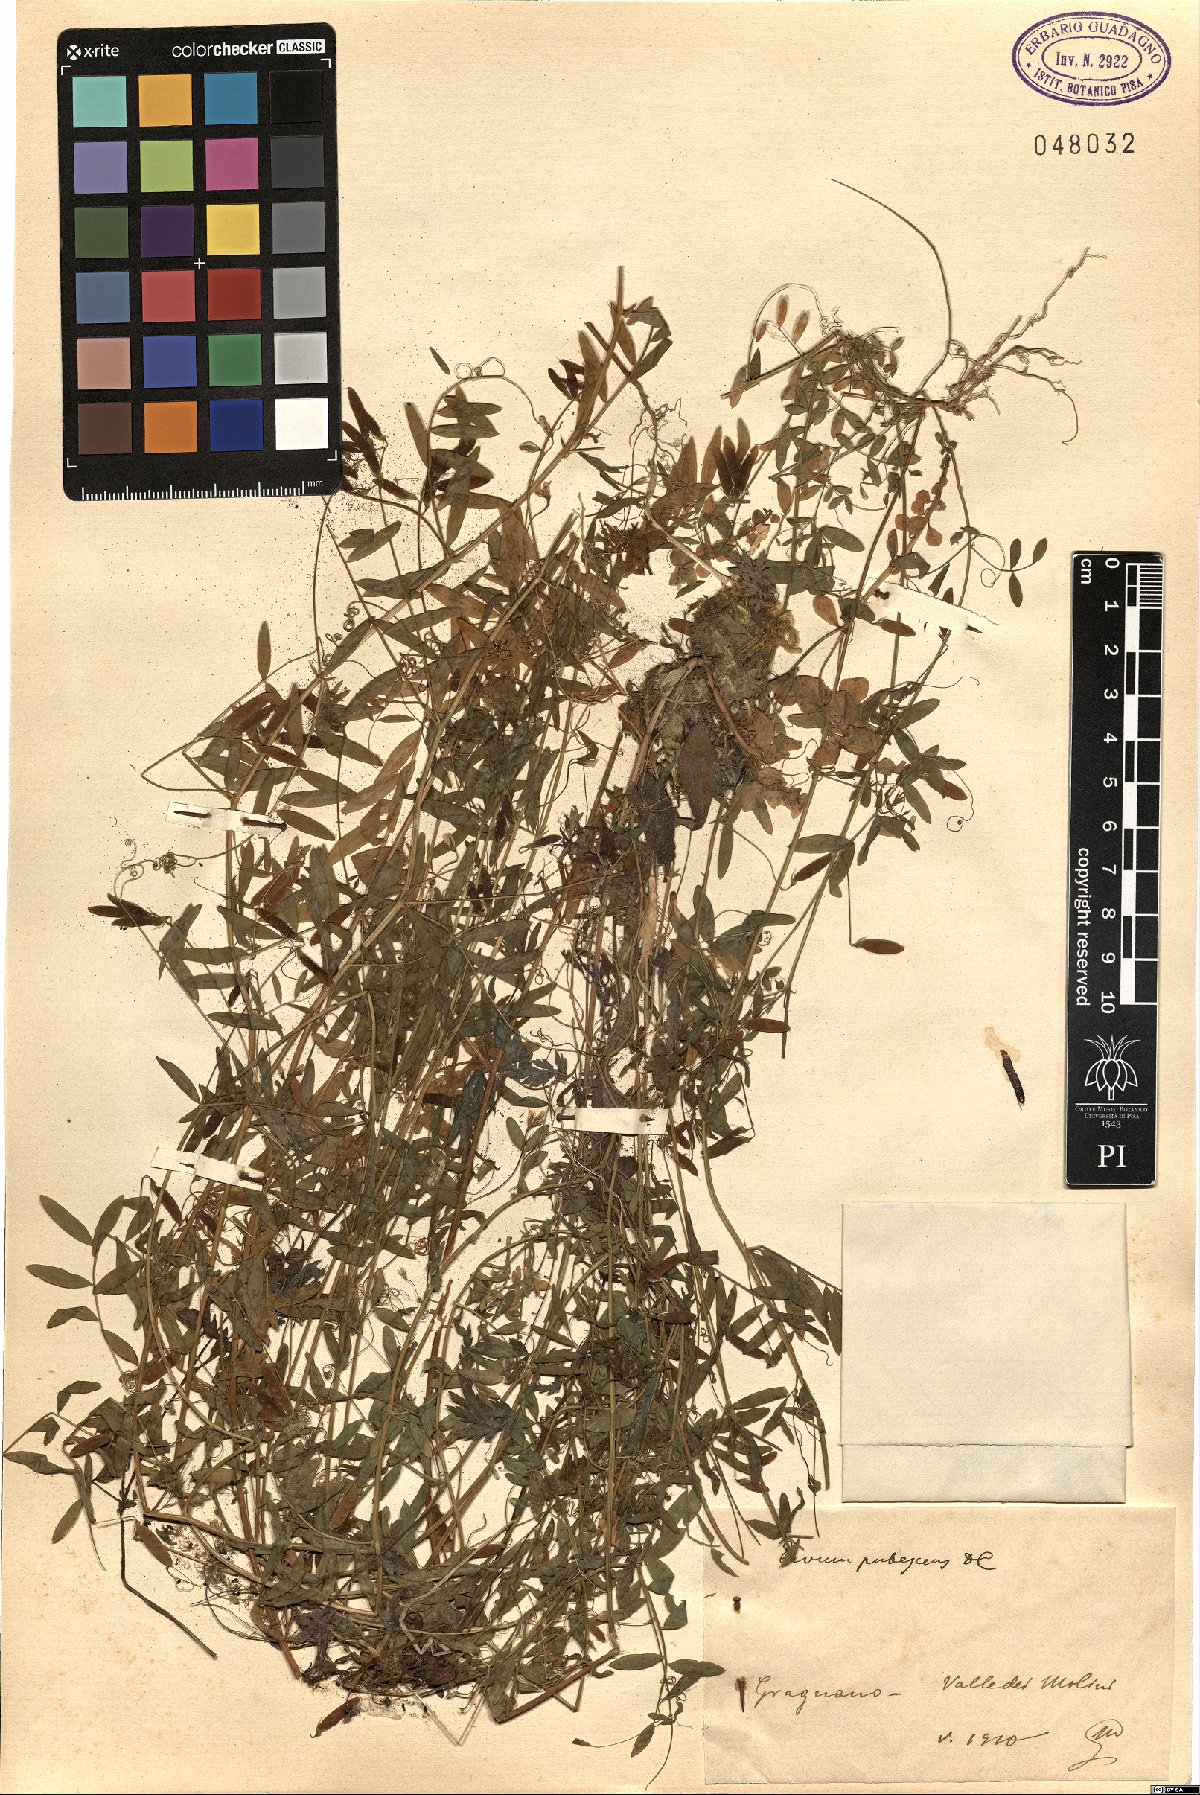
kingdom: Plantae
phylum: Tracheophyta
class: Magnoliopsida
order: Fabales
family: Fabaceae
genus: Vicia
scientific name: Vicia pubescens
